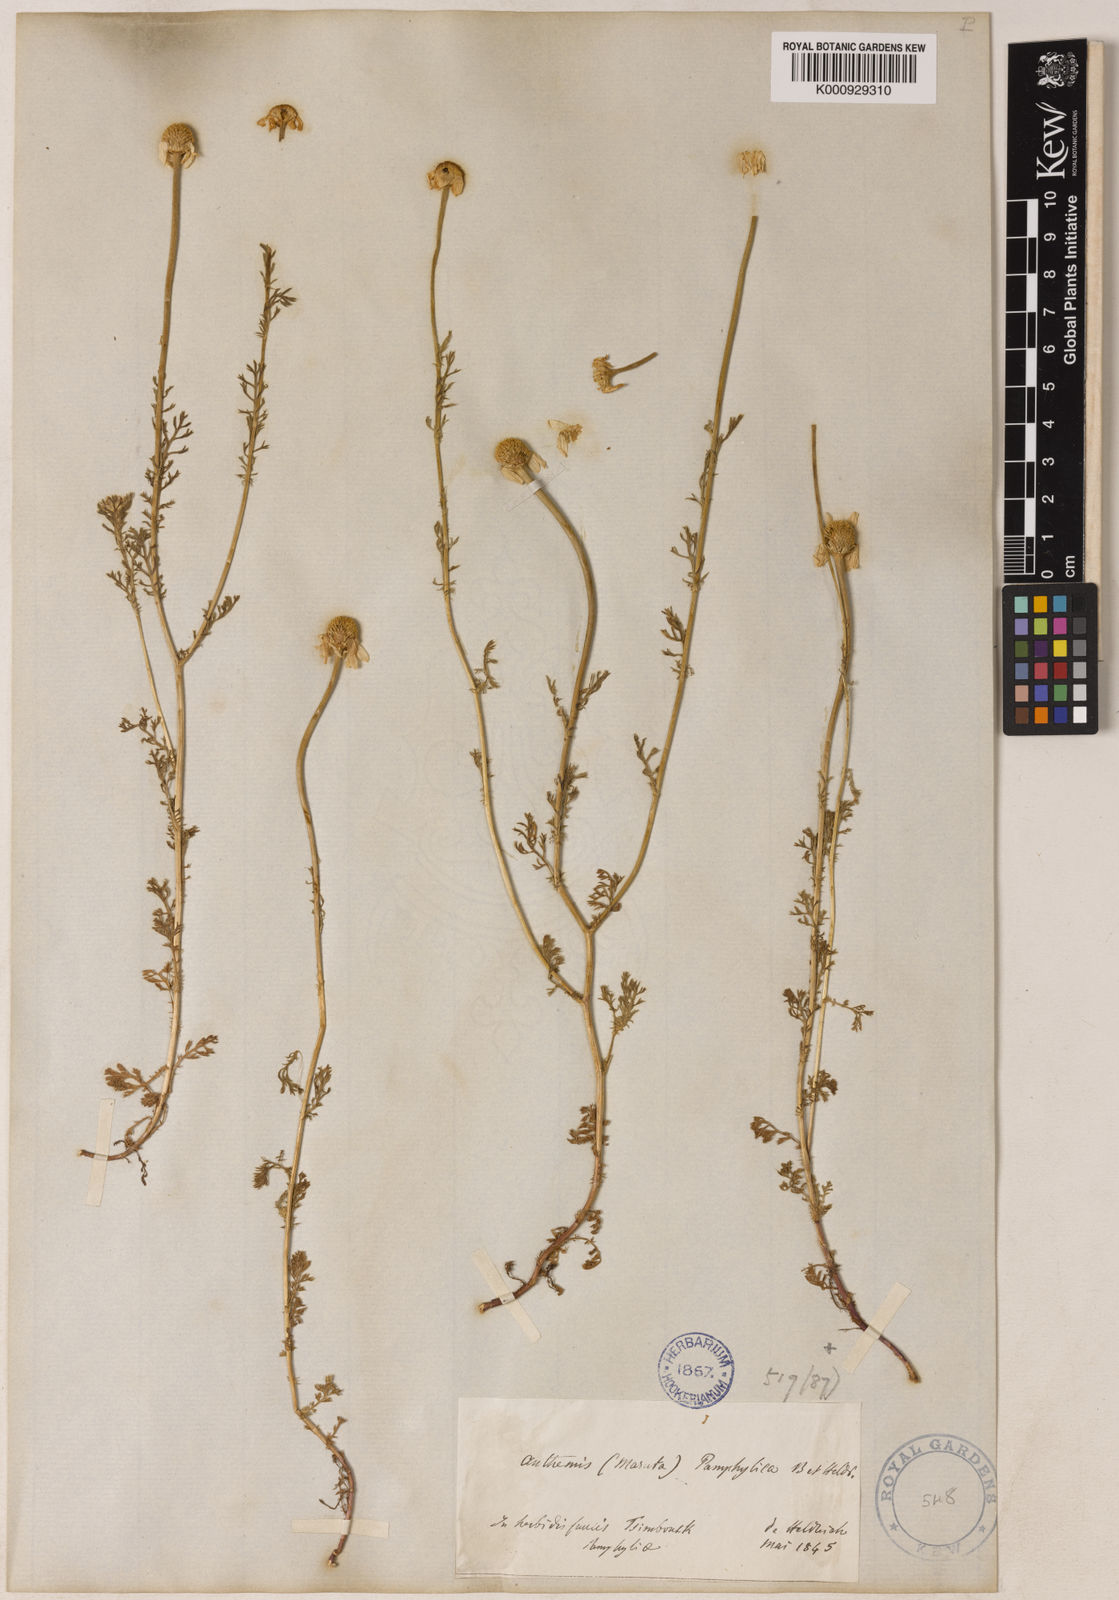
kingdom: Plantae
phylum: Tracheophyta
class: Magnoliopsida
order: Asterales
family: Asteraceae
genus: Anthemis
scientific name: Anthemis pseudocotula
